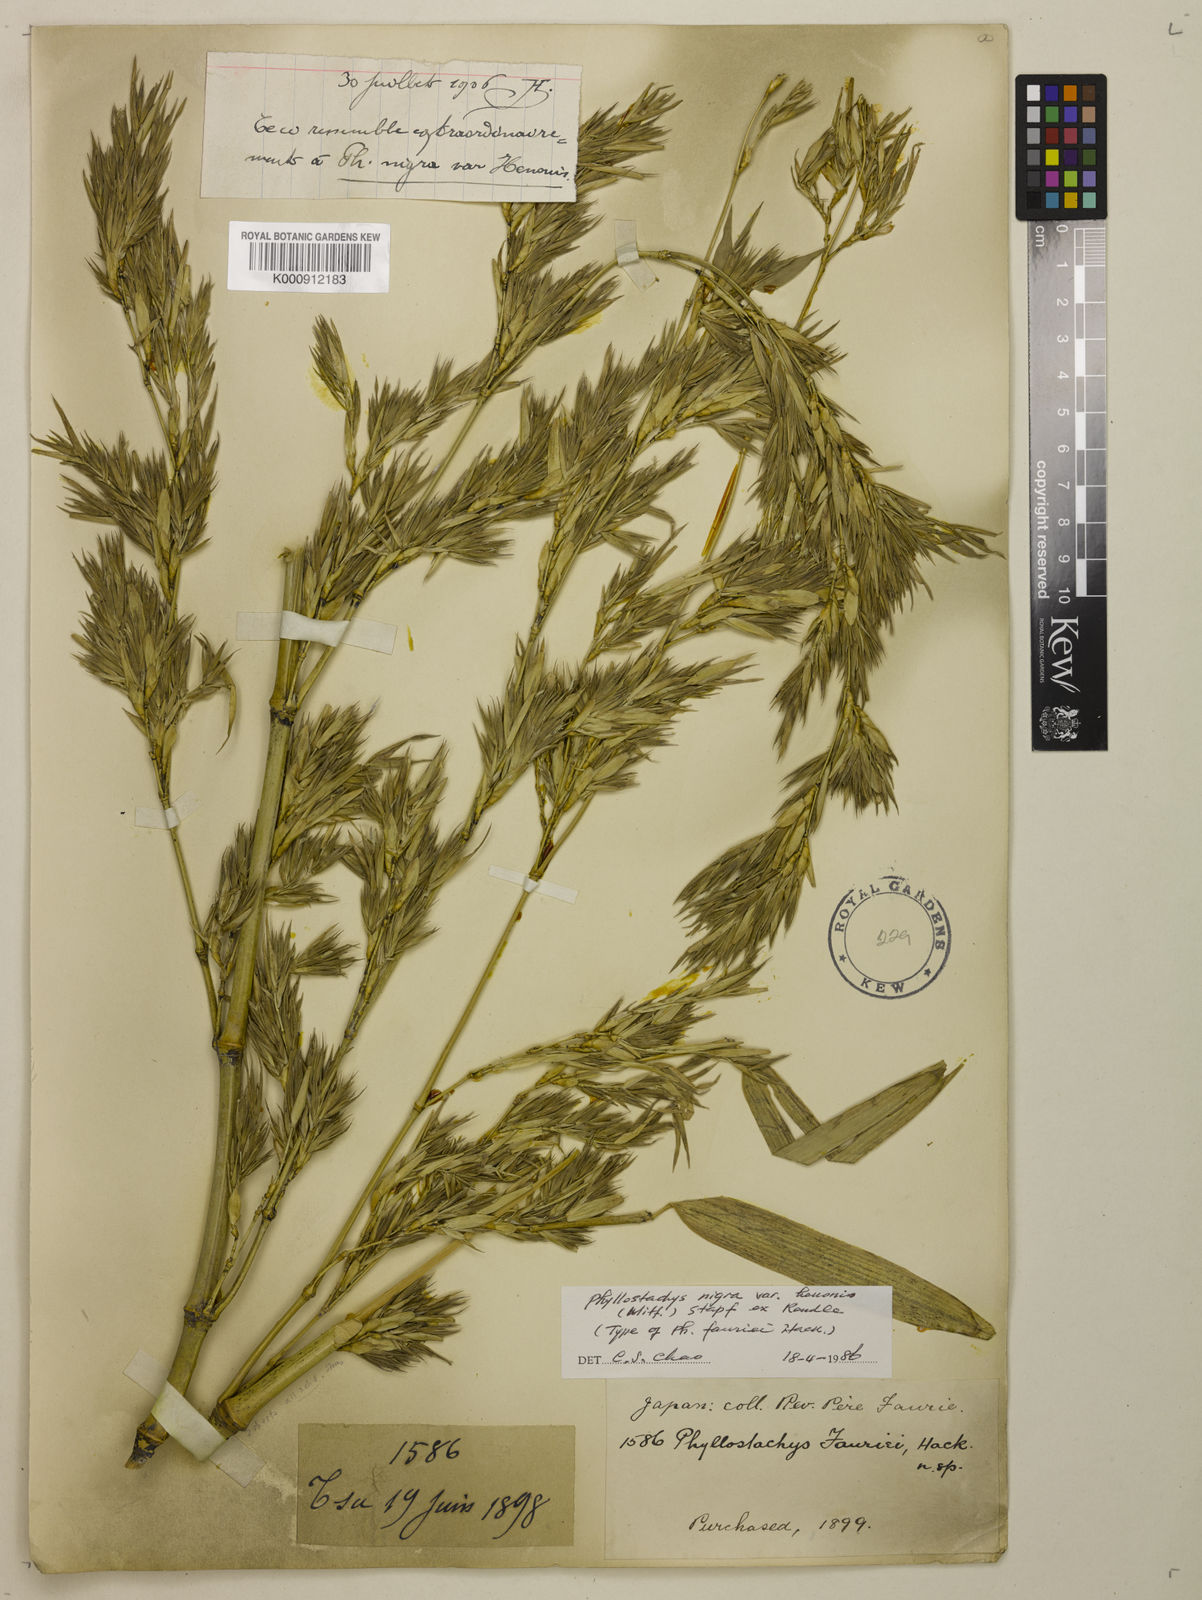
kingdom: Plantae
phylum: Tracheophyta
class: Liliopsida
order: Poales
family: Poaceae
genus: Phyllostachys
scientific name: Phyllostachys nigra
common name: Black bamboo
